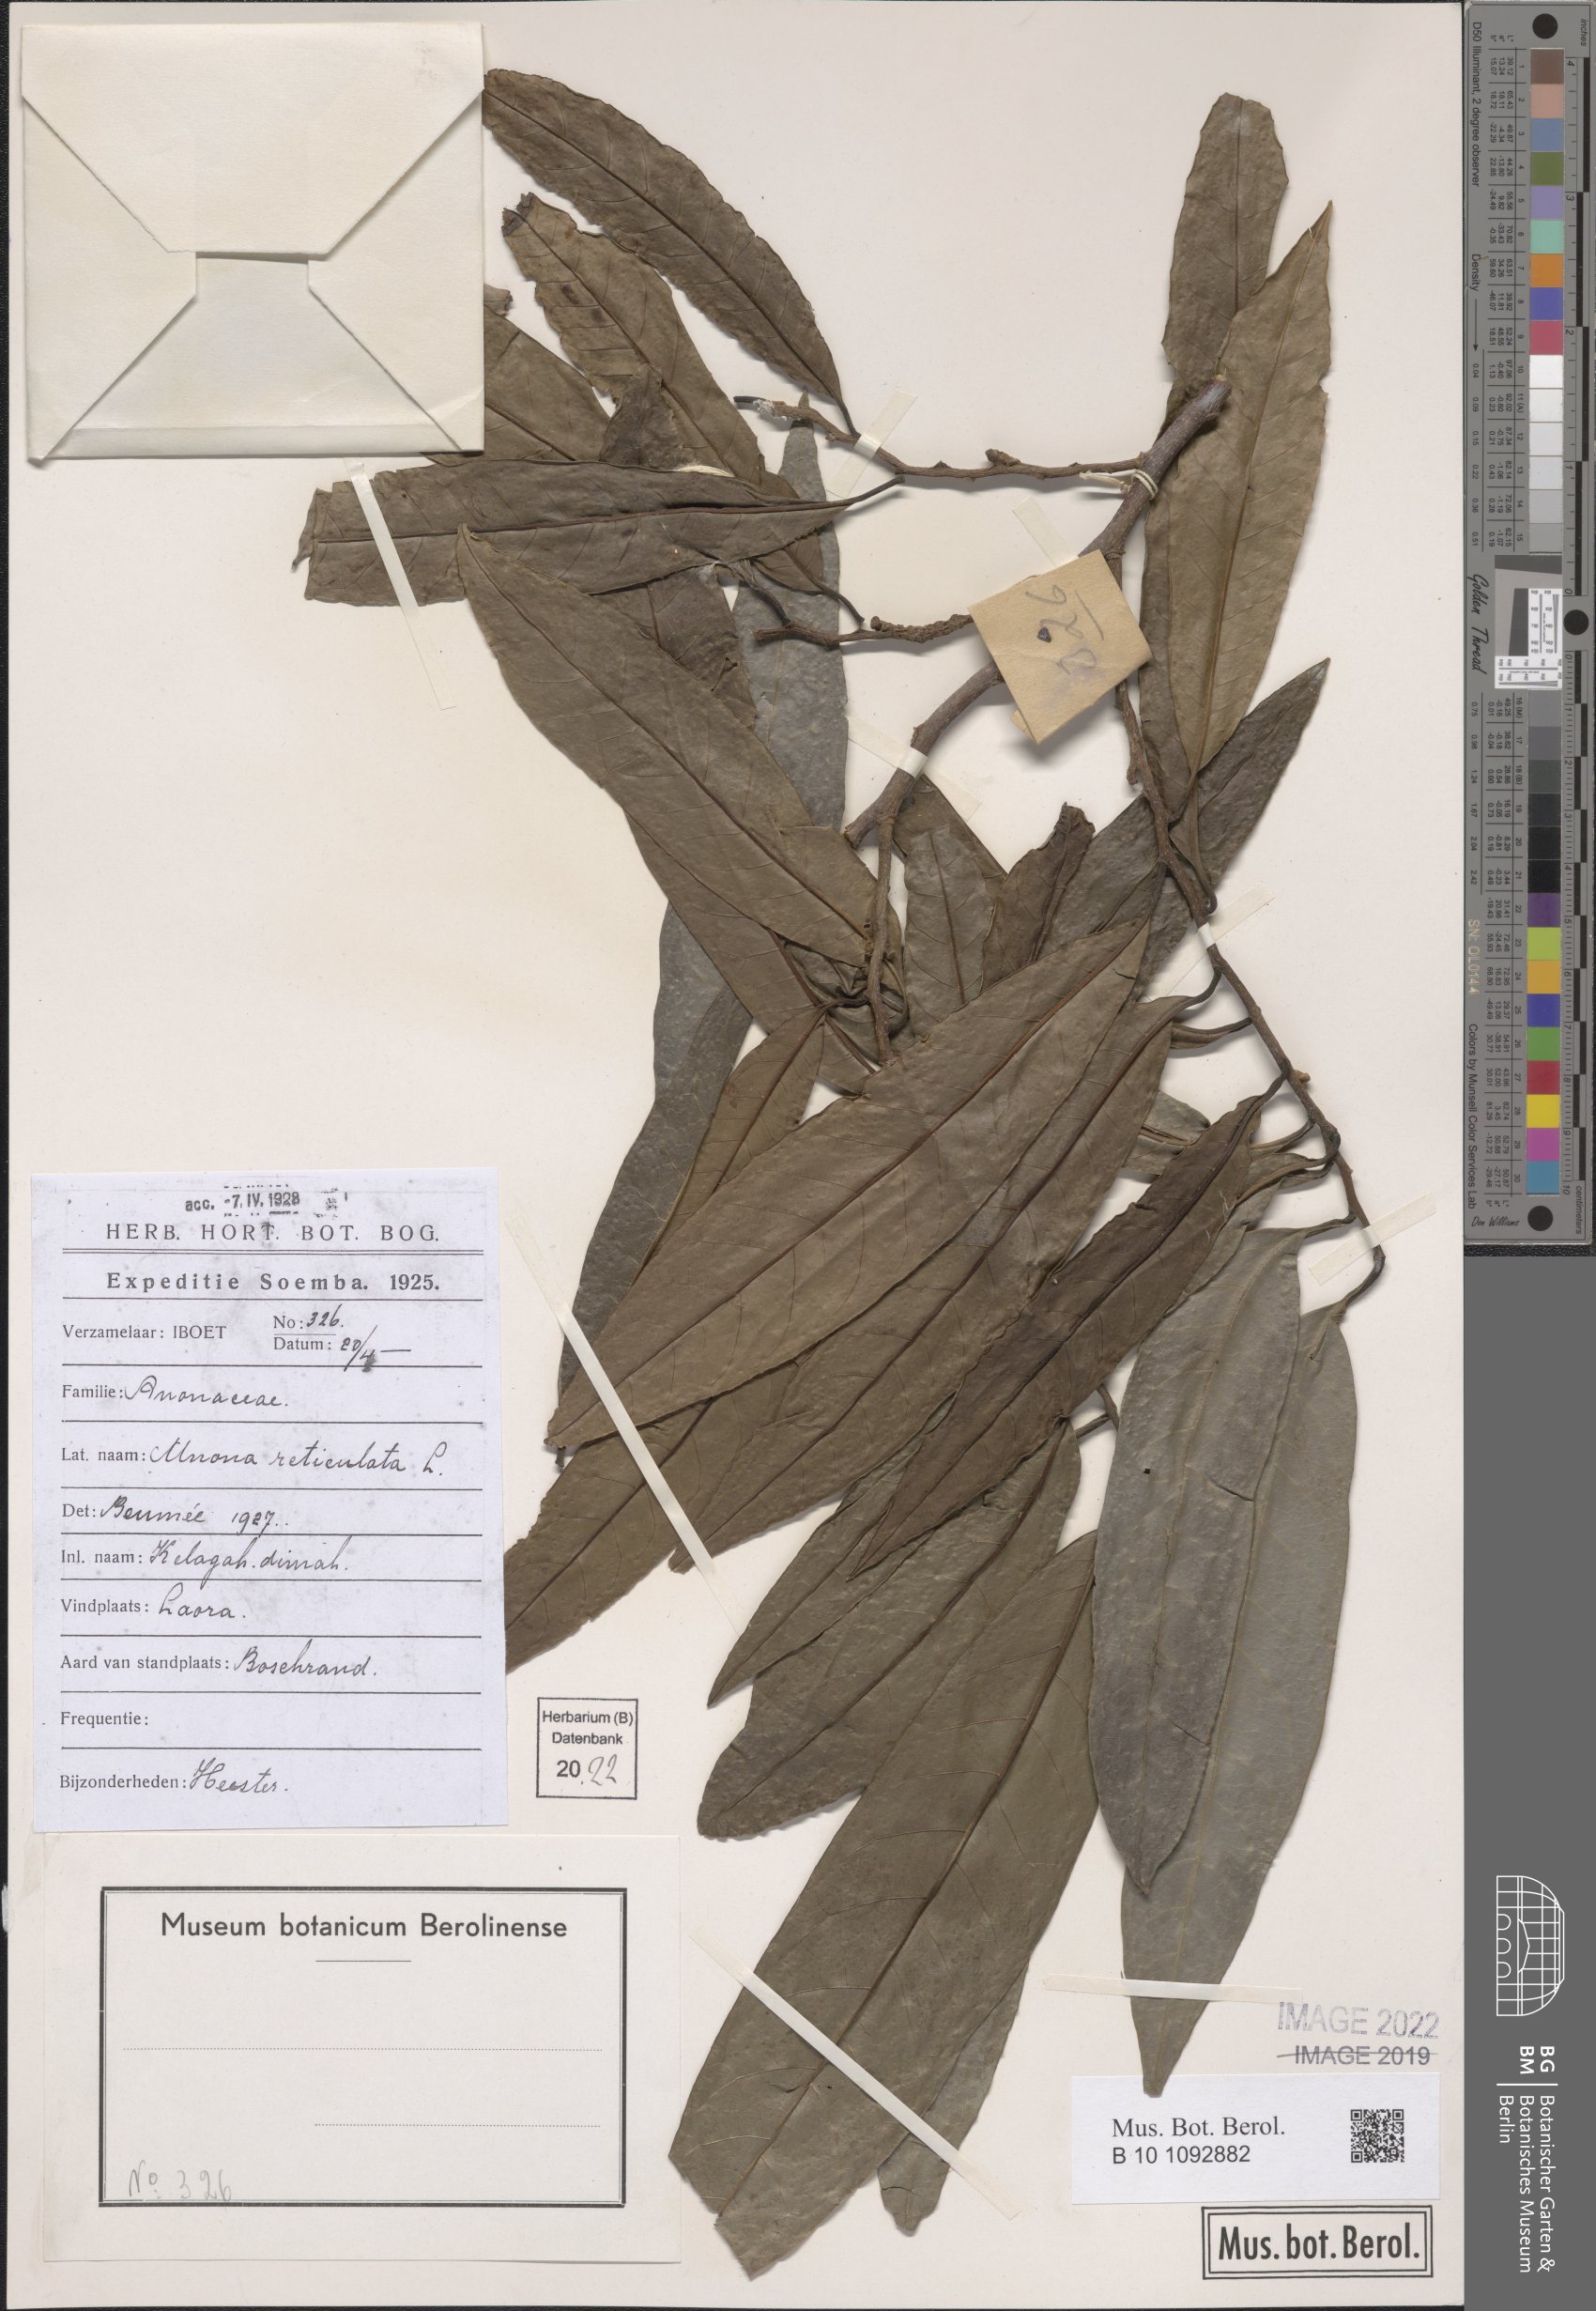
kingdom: Plantae
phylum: Tracheophyta
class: Magnoliopsida
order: Magnoliales
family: Annonaceae
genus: Annona
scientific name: Annona reticulata
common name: Custard apple
